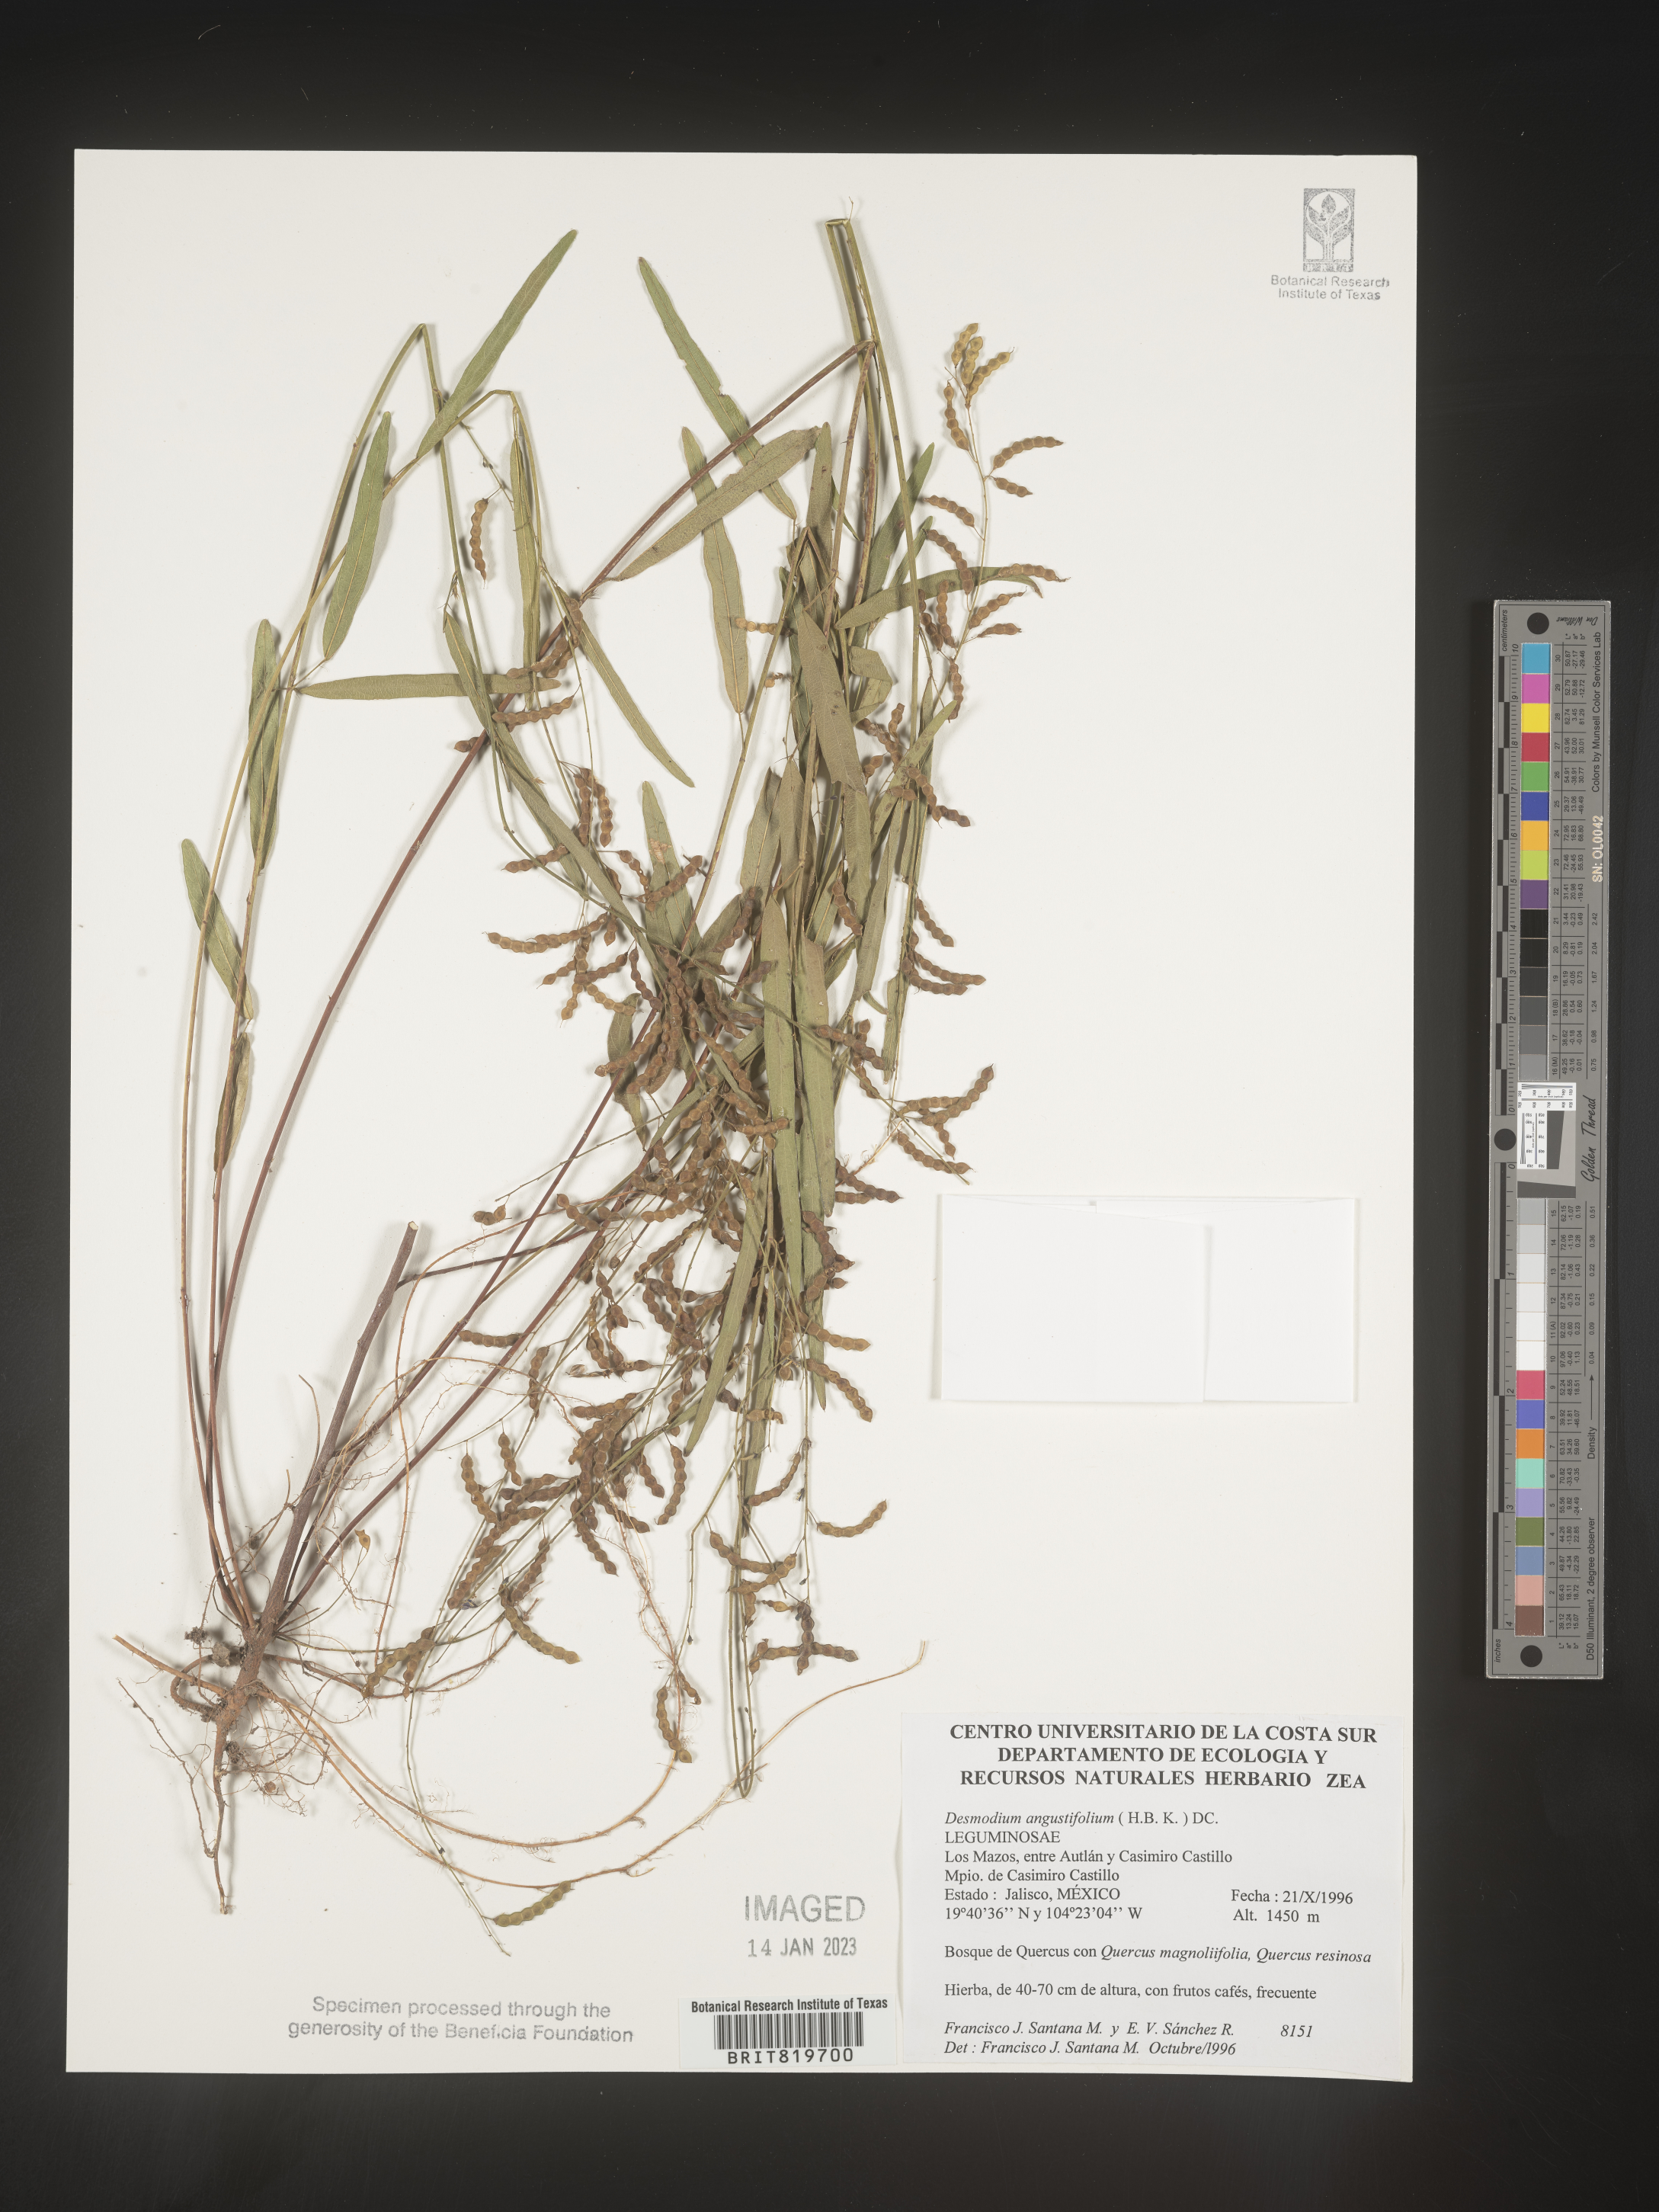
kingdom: Plantae
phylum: Tracheophyta
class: Magnoliopsida
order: Fabales
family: Fabaceae
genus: Desmodium
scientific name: Desmodium
